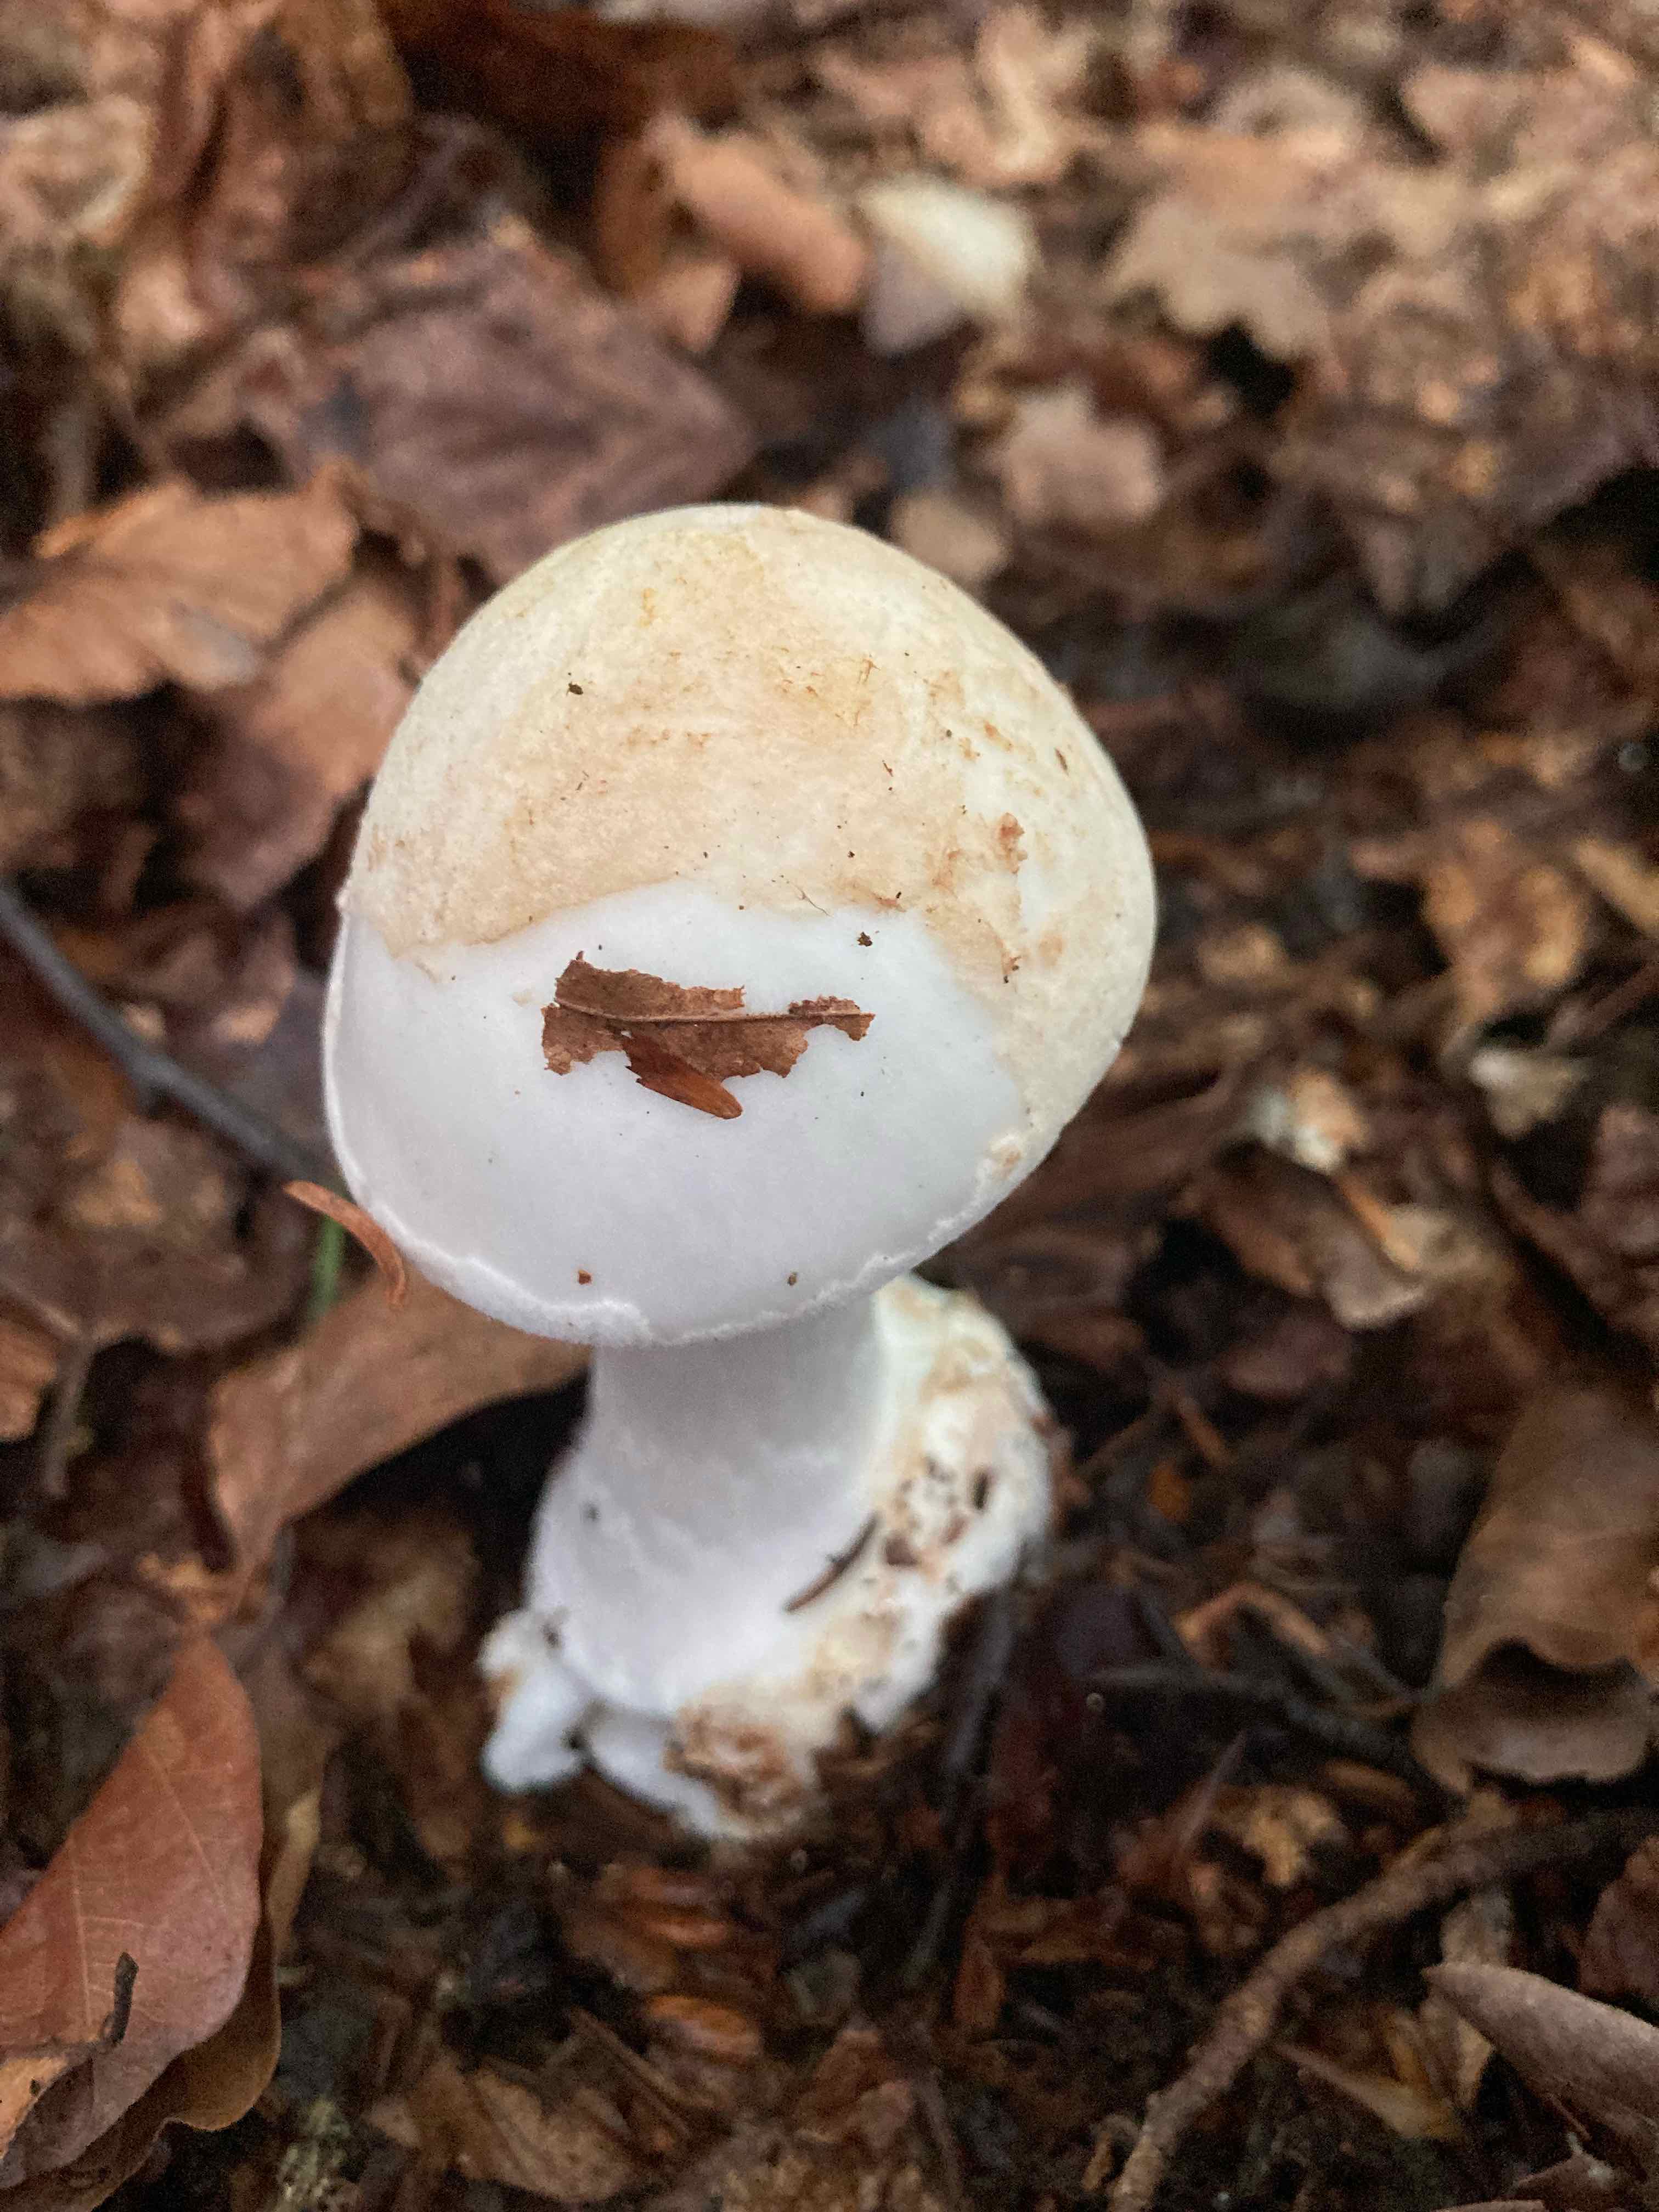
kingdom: Fungi
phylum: Basidiomycota
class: Agaricomycetes
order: Agaricales
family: Amanitaceae
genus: Amanita
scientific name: Amanita citrina
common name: kugleknoldet fluesvamp
